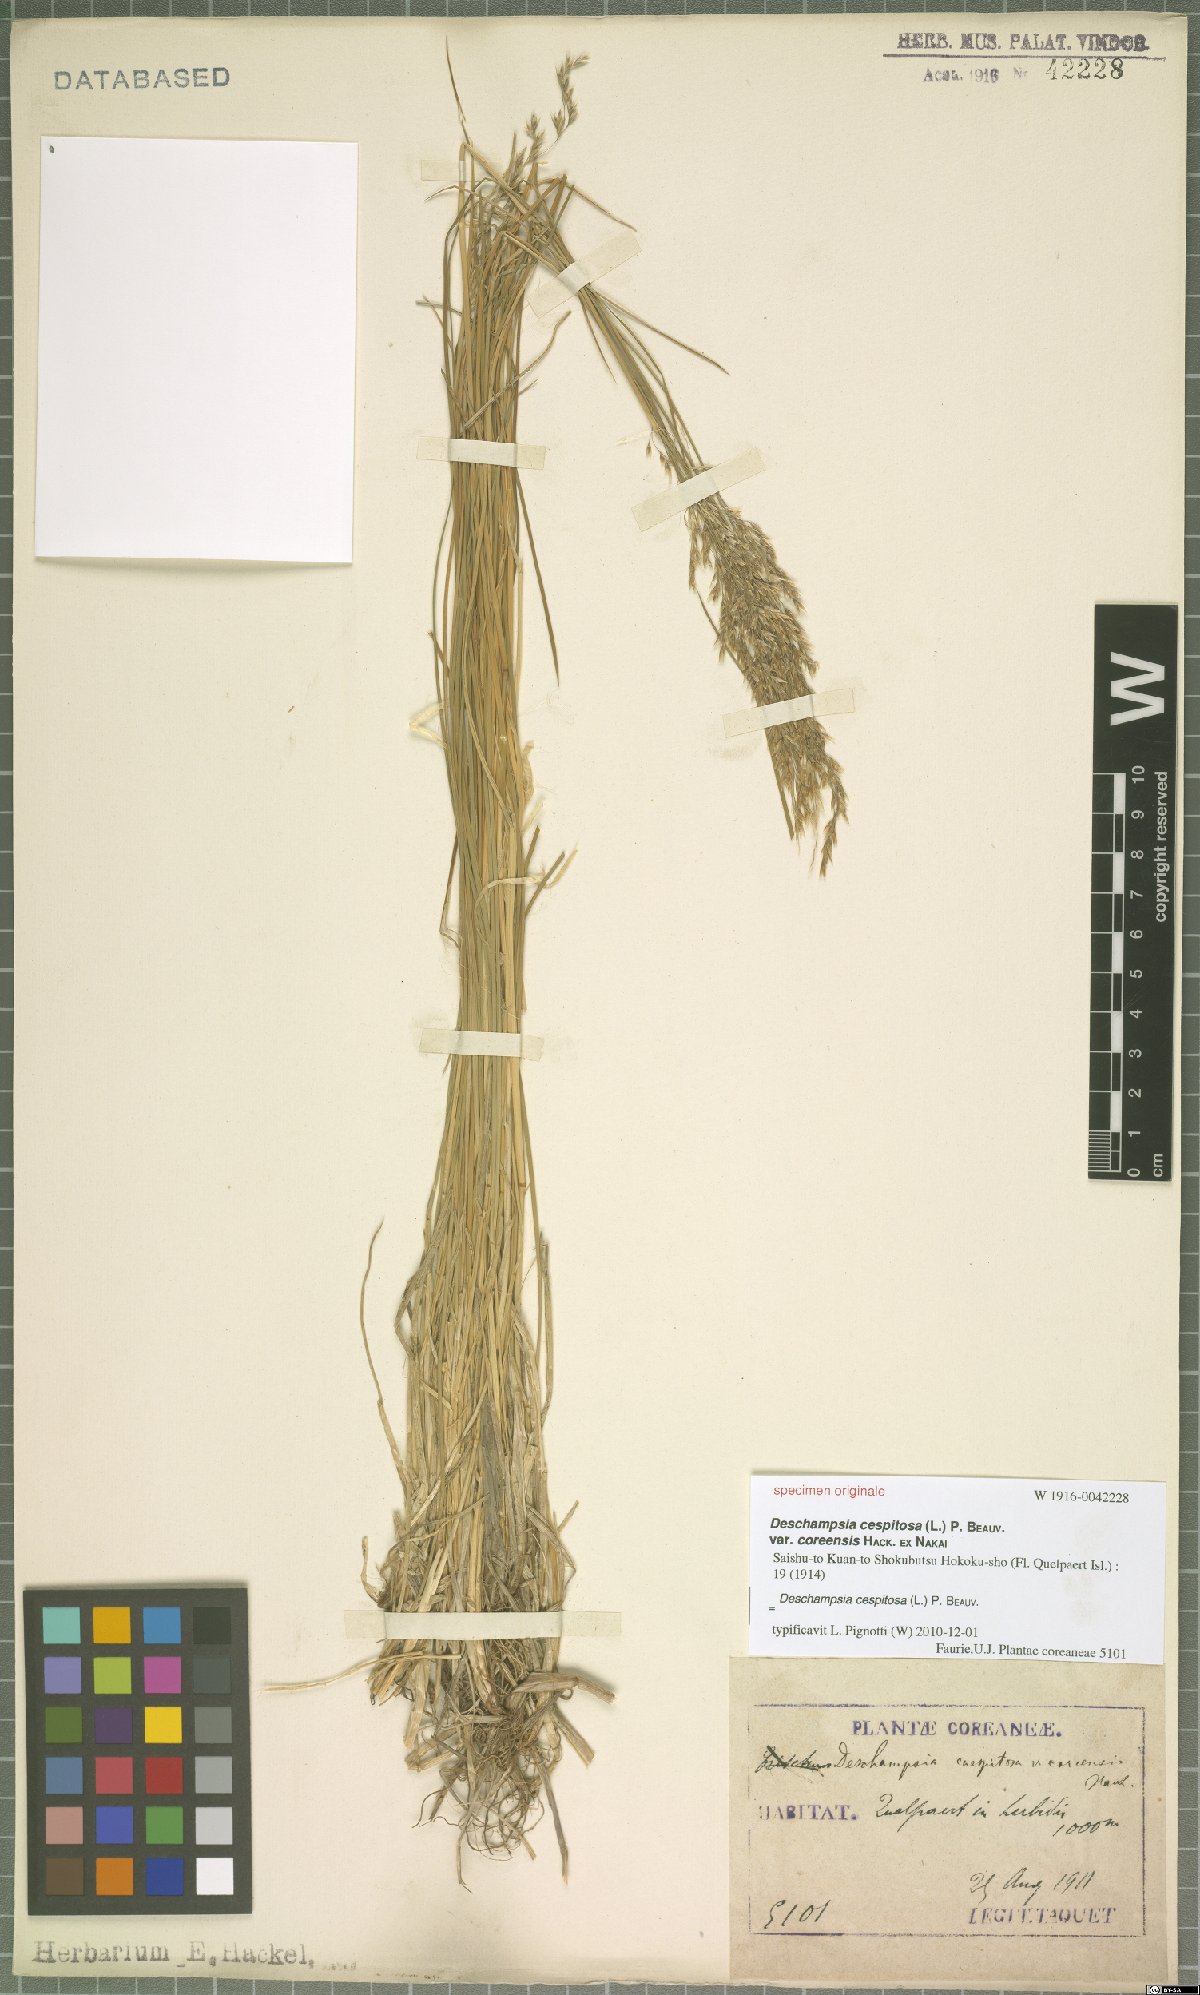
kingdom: Plantae
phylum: Tracheophyta
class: Liliopsida
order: Poales
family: Poaceae
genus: Deschampsia
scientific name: Deschampsia cespitosa
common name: Tufted hair-grass
